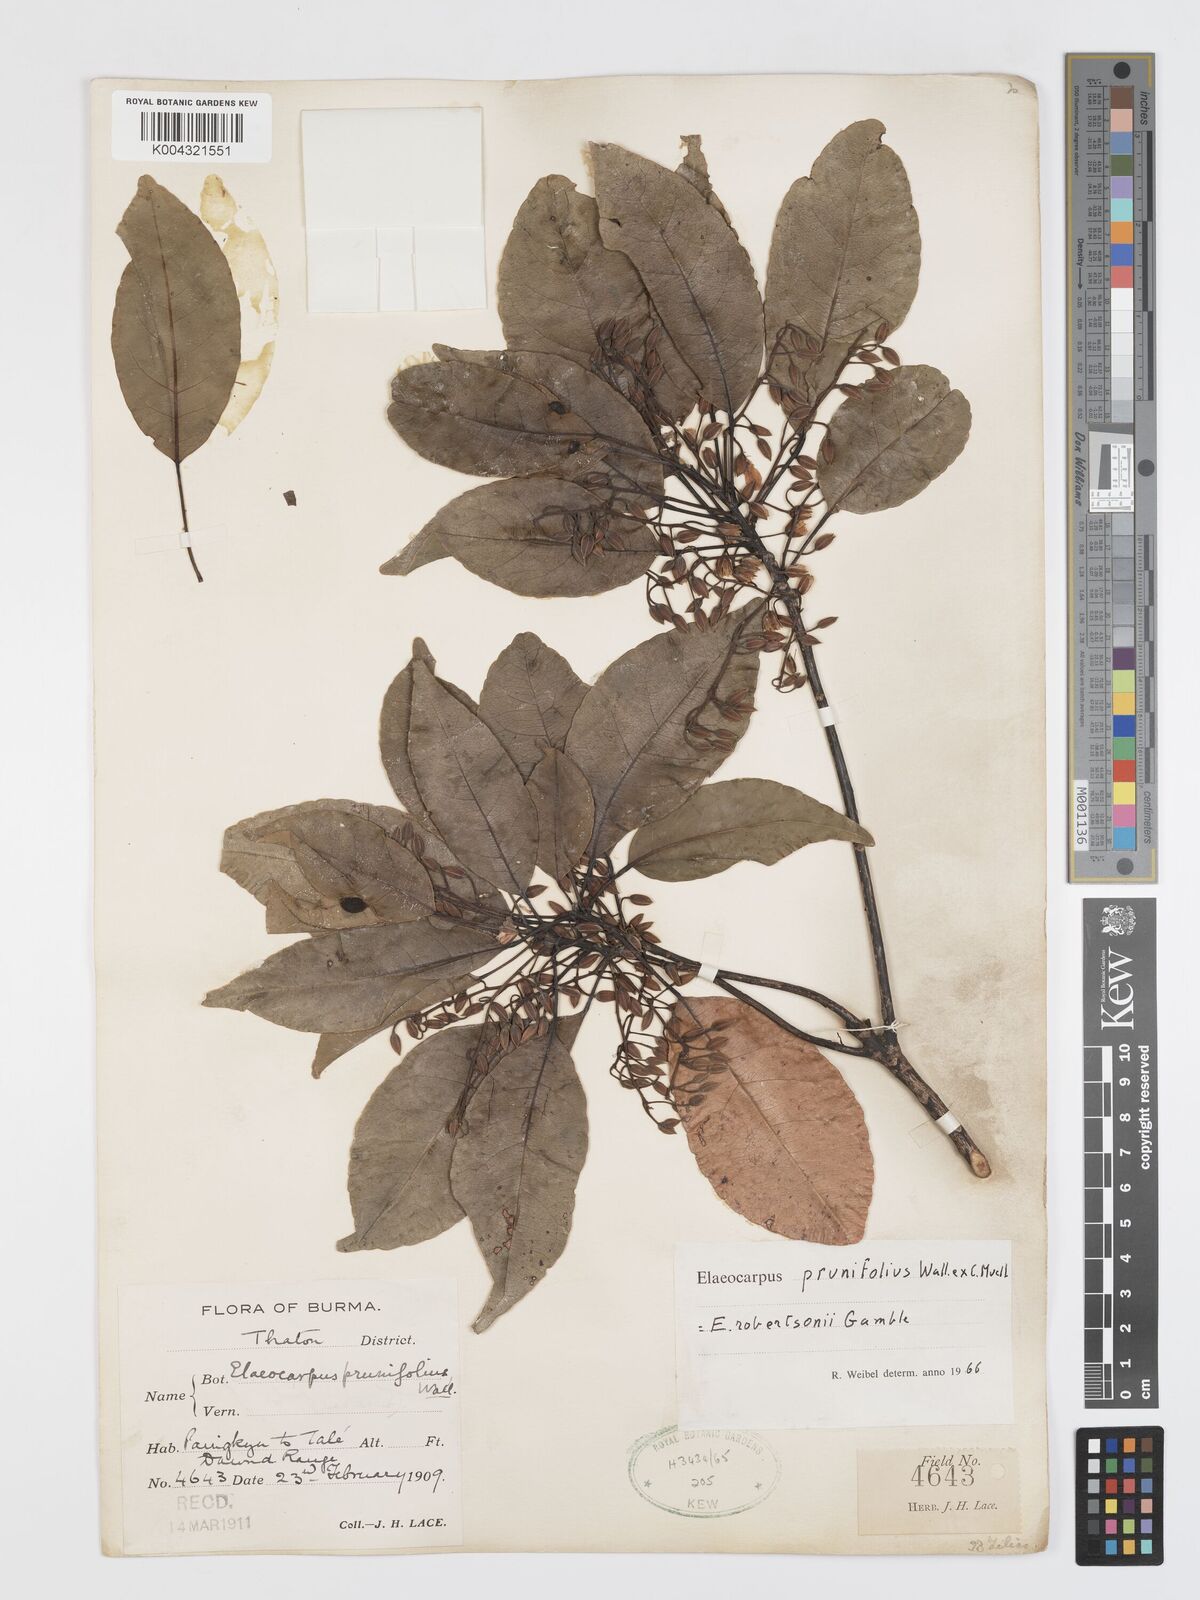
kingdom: Plantae
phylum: Tracheophyta
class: Magnoliopsida
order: Oxalidales
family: Elaeocarpaceae
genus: Elaeocarpus
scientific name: Elaeocarpus prunifolius
